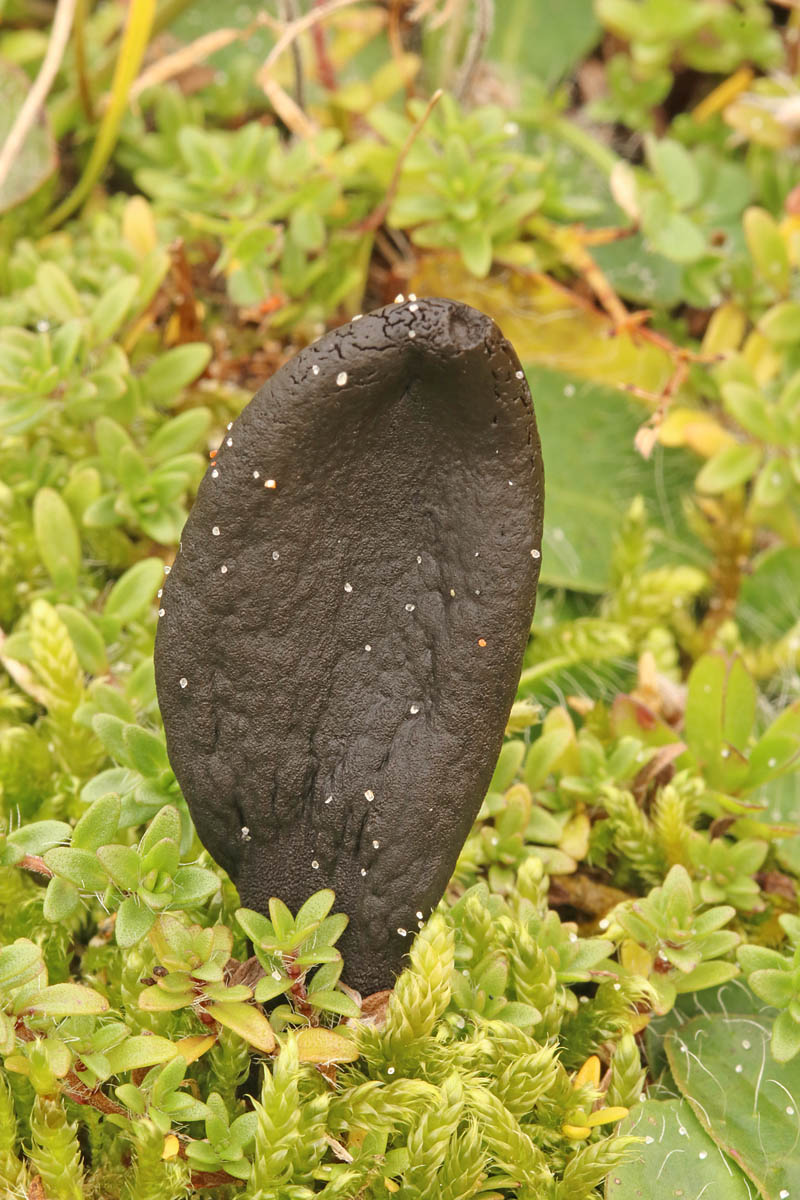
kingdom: Fungi
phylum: Ascomycota
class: Geoglossomycetes
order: Geoglossales
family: Geoglossaceae
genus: Geoglossum
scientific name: Geoglossum cookeianum
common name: bred jordtunge
